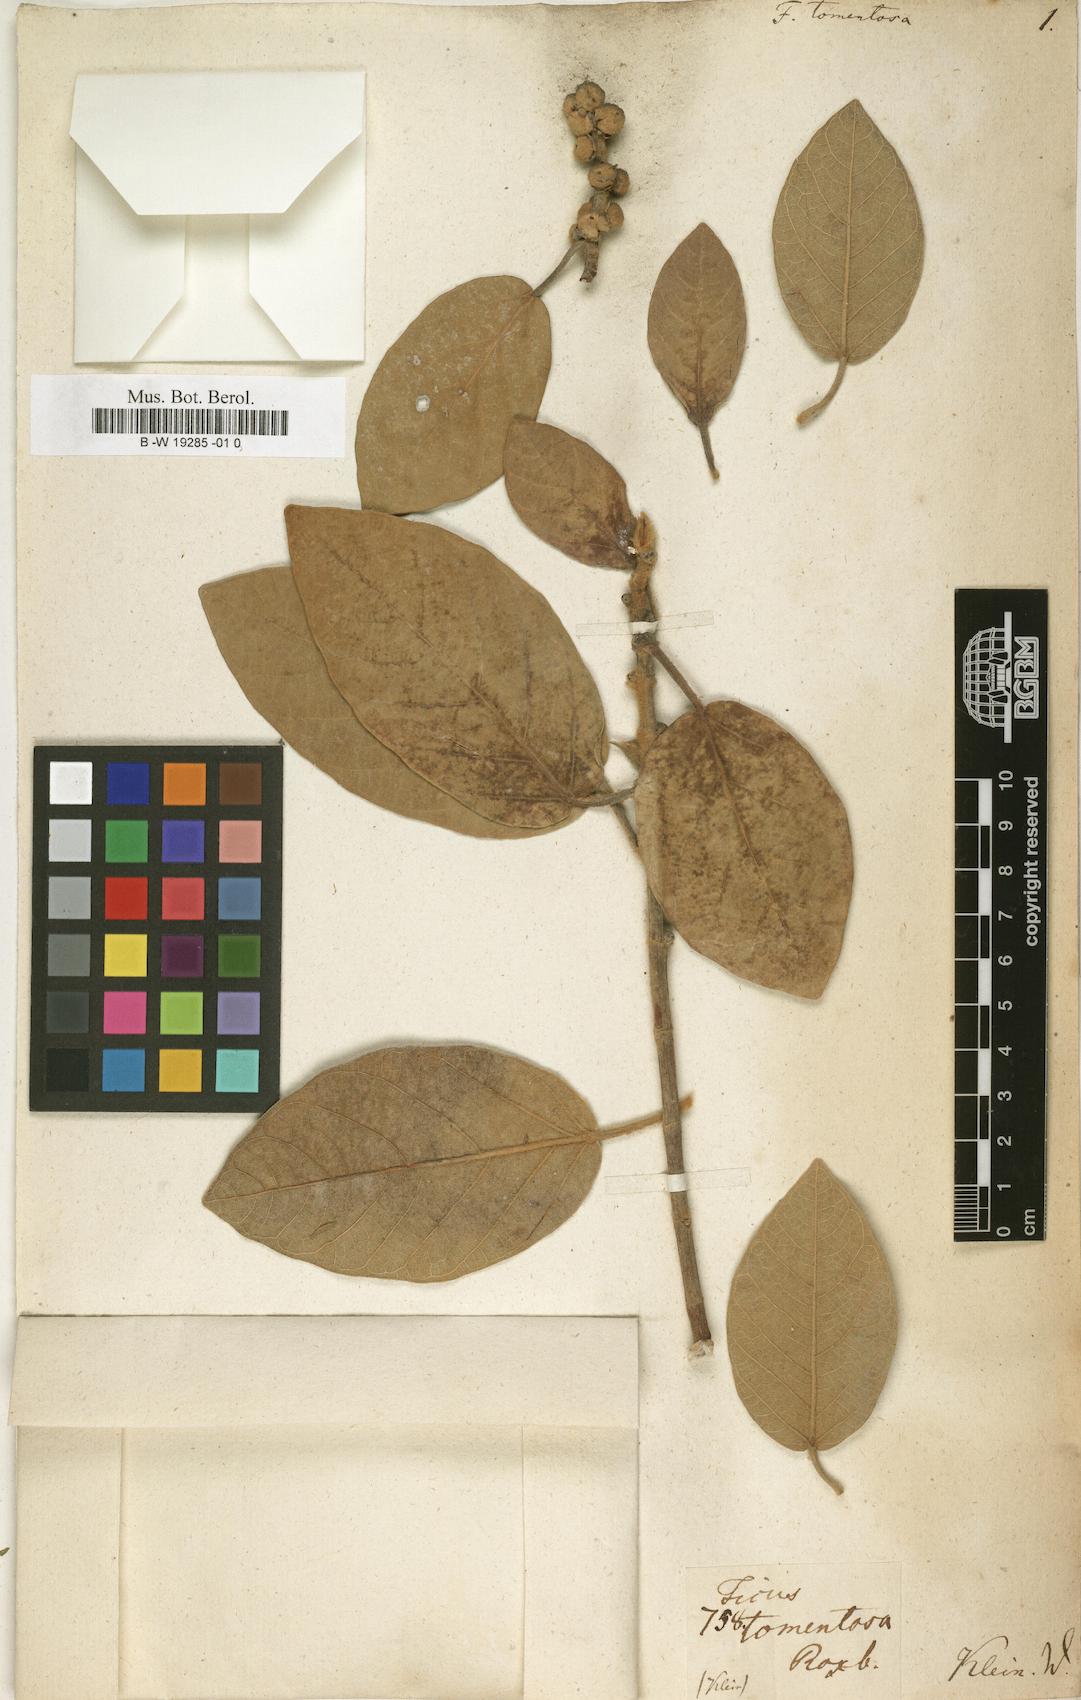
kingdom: Plantae
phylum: Tracheophyta
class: Magnoliopsida
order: Rosales
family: Moraceae
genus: Ficus
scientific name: Ficus mollis
